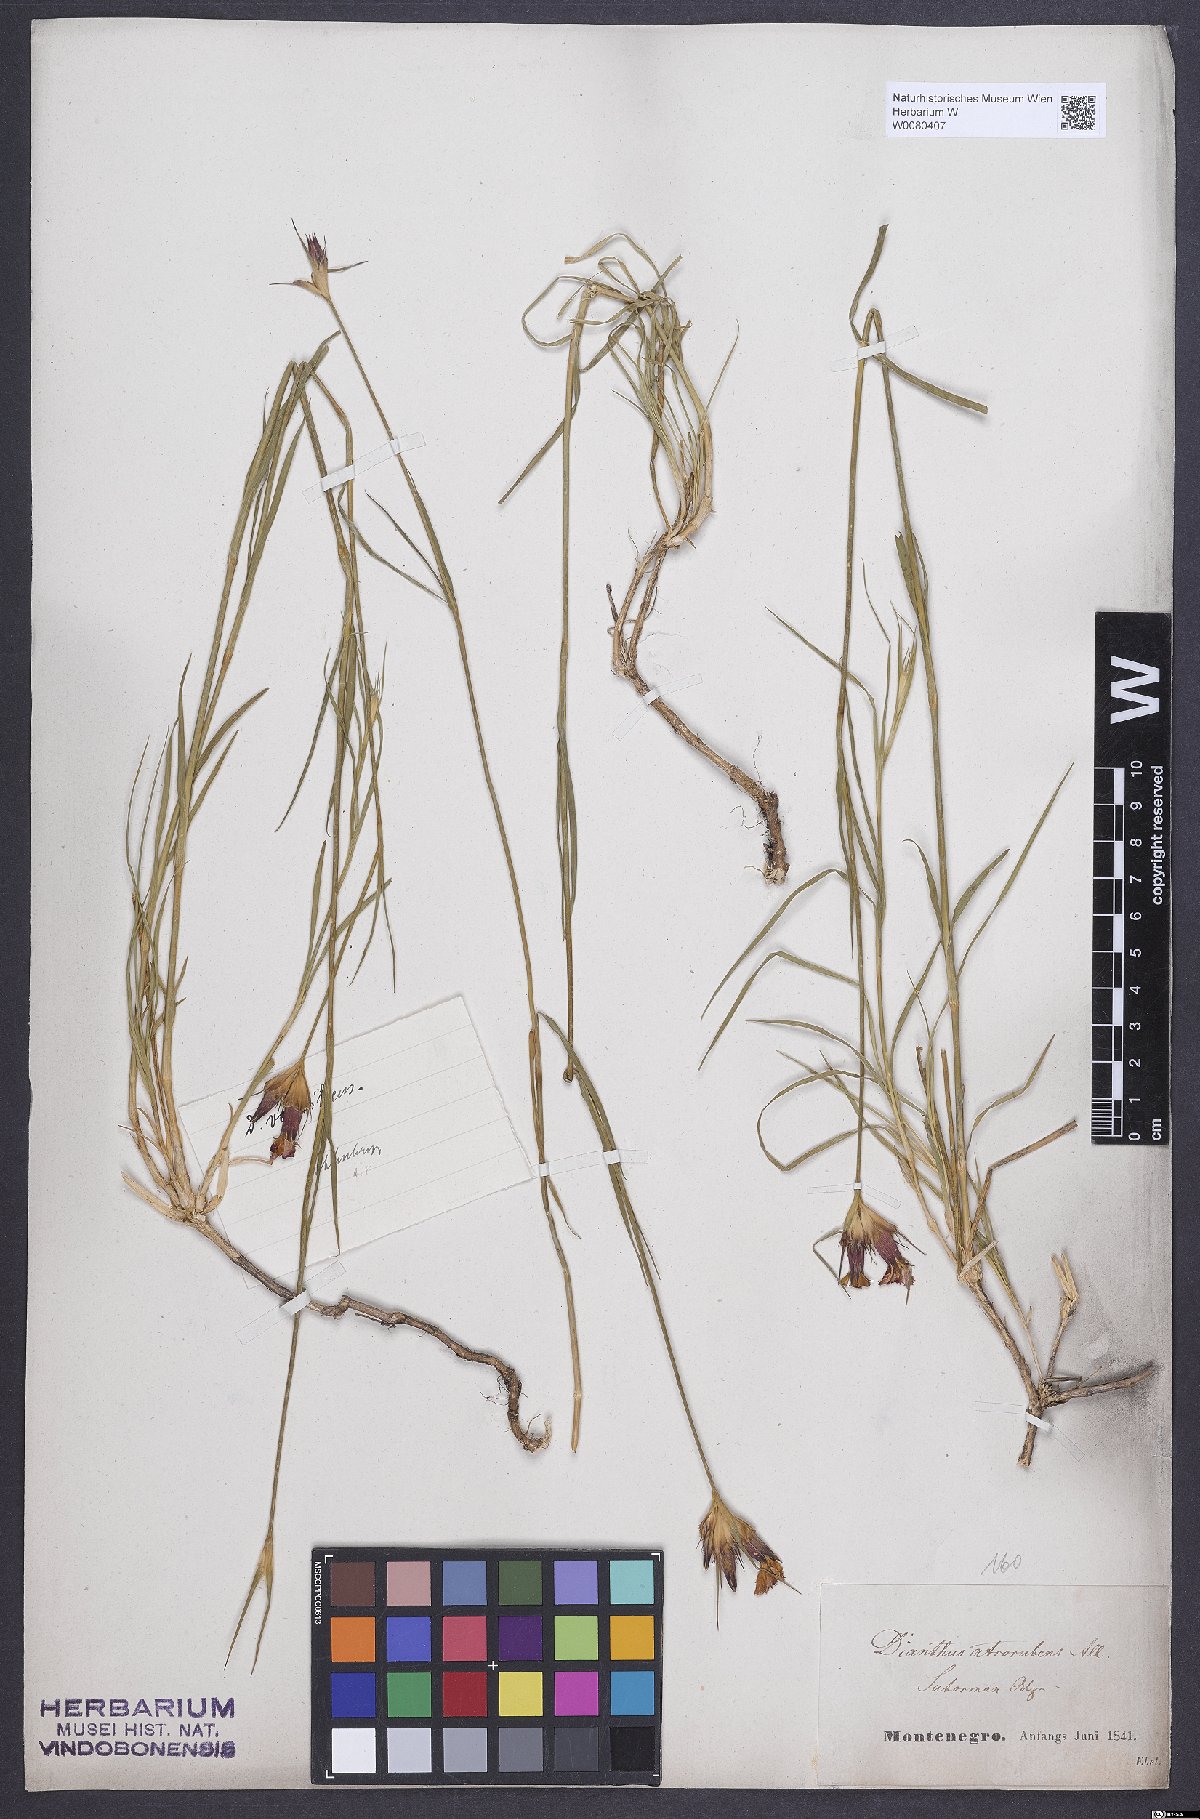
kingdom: Plantae
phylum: Tracheophyta
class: Magnoliopsida
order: Caryophyllales
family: Caryophyllaceae
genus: Dianthus
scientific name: Dianthus carthusianorum
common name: Carthusian pink
